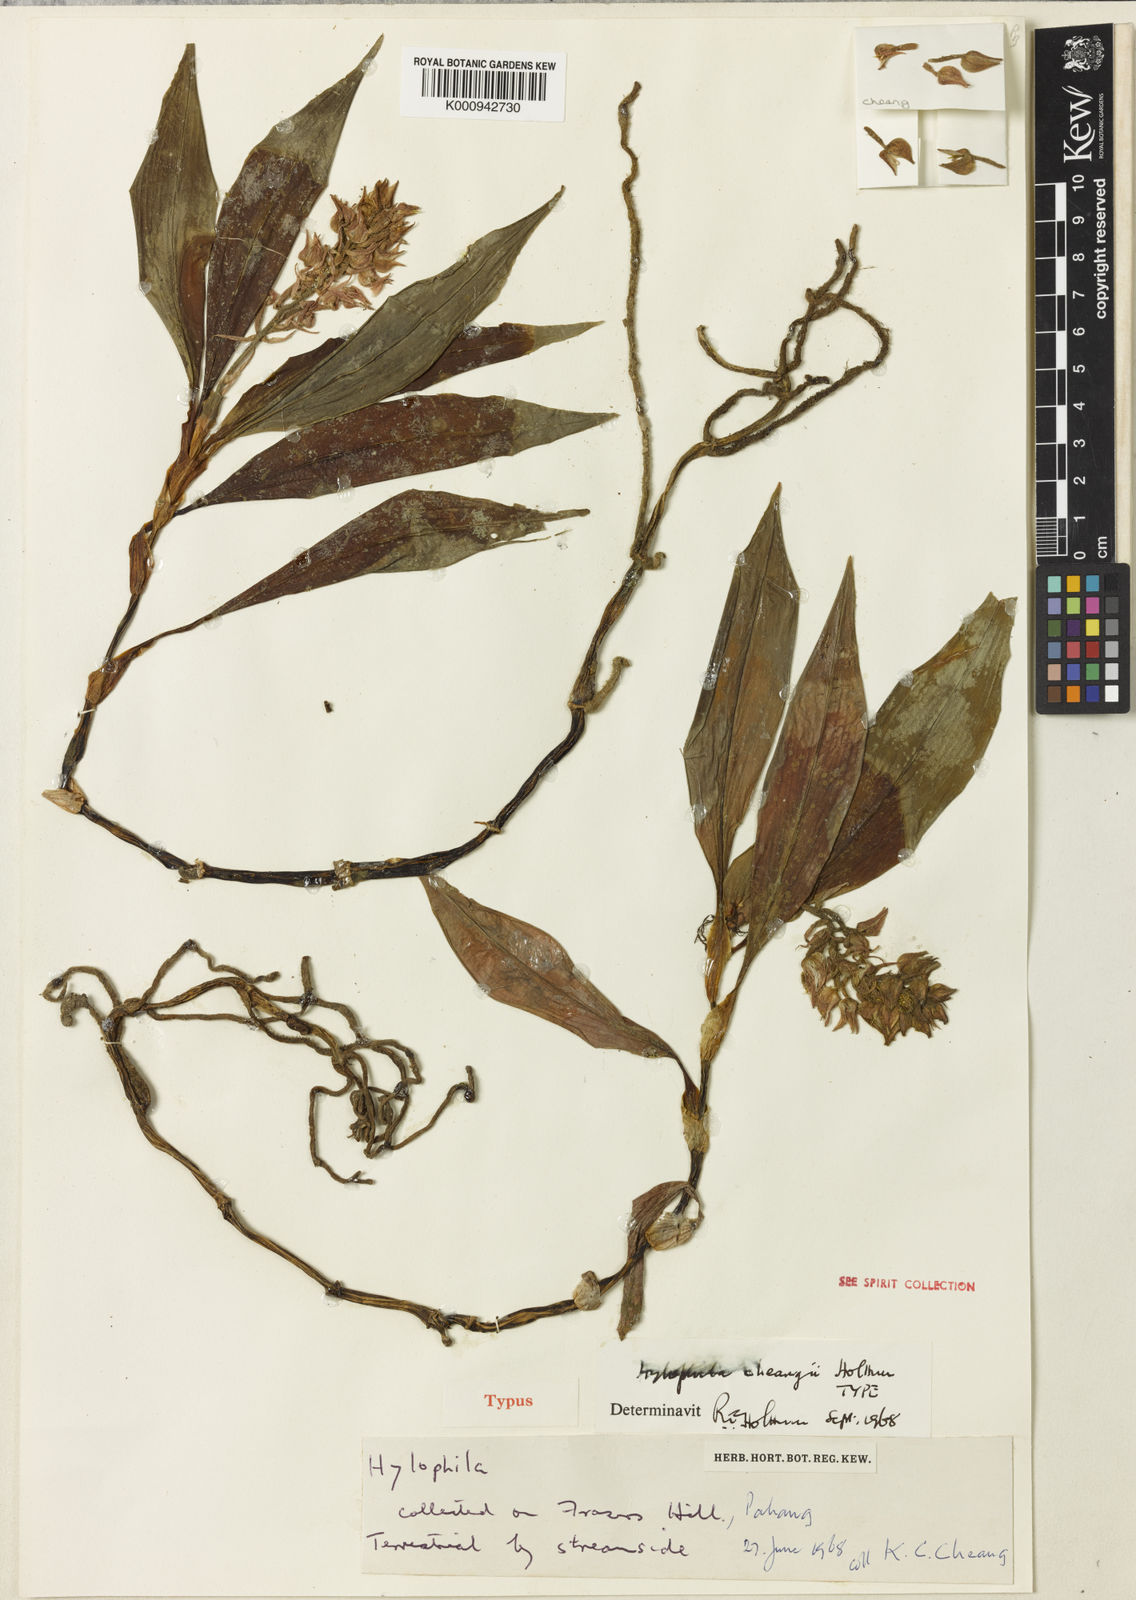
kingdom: Plantae
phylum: Tracheophyta
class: Liliopsida
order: Asparagales
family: Orchidaceae
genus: Hylophila
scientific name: Hylophila cheangii
